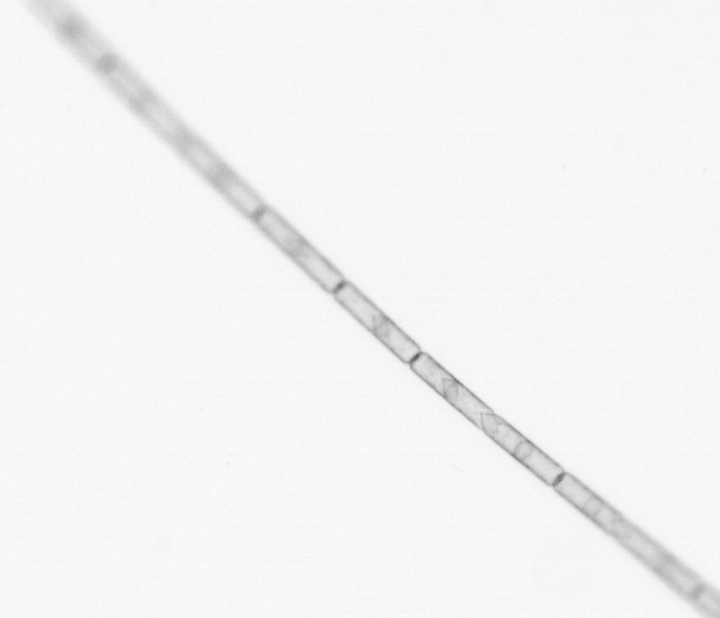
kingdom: Chromista
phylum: Ochrophyta
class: Bacillariophyceae
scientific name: Bacillariophyceae
